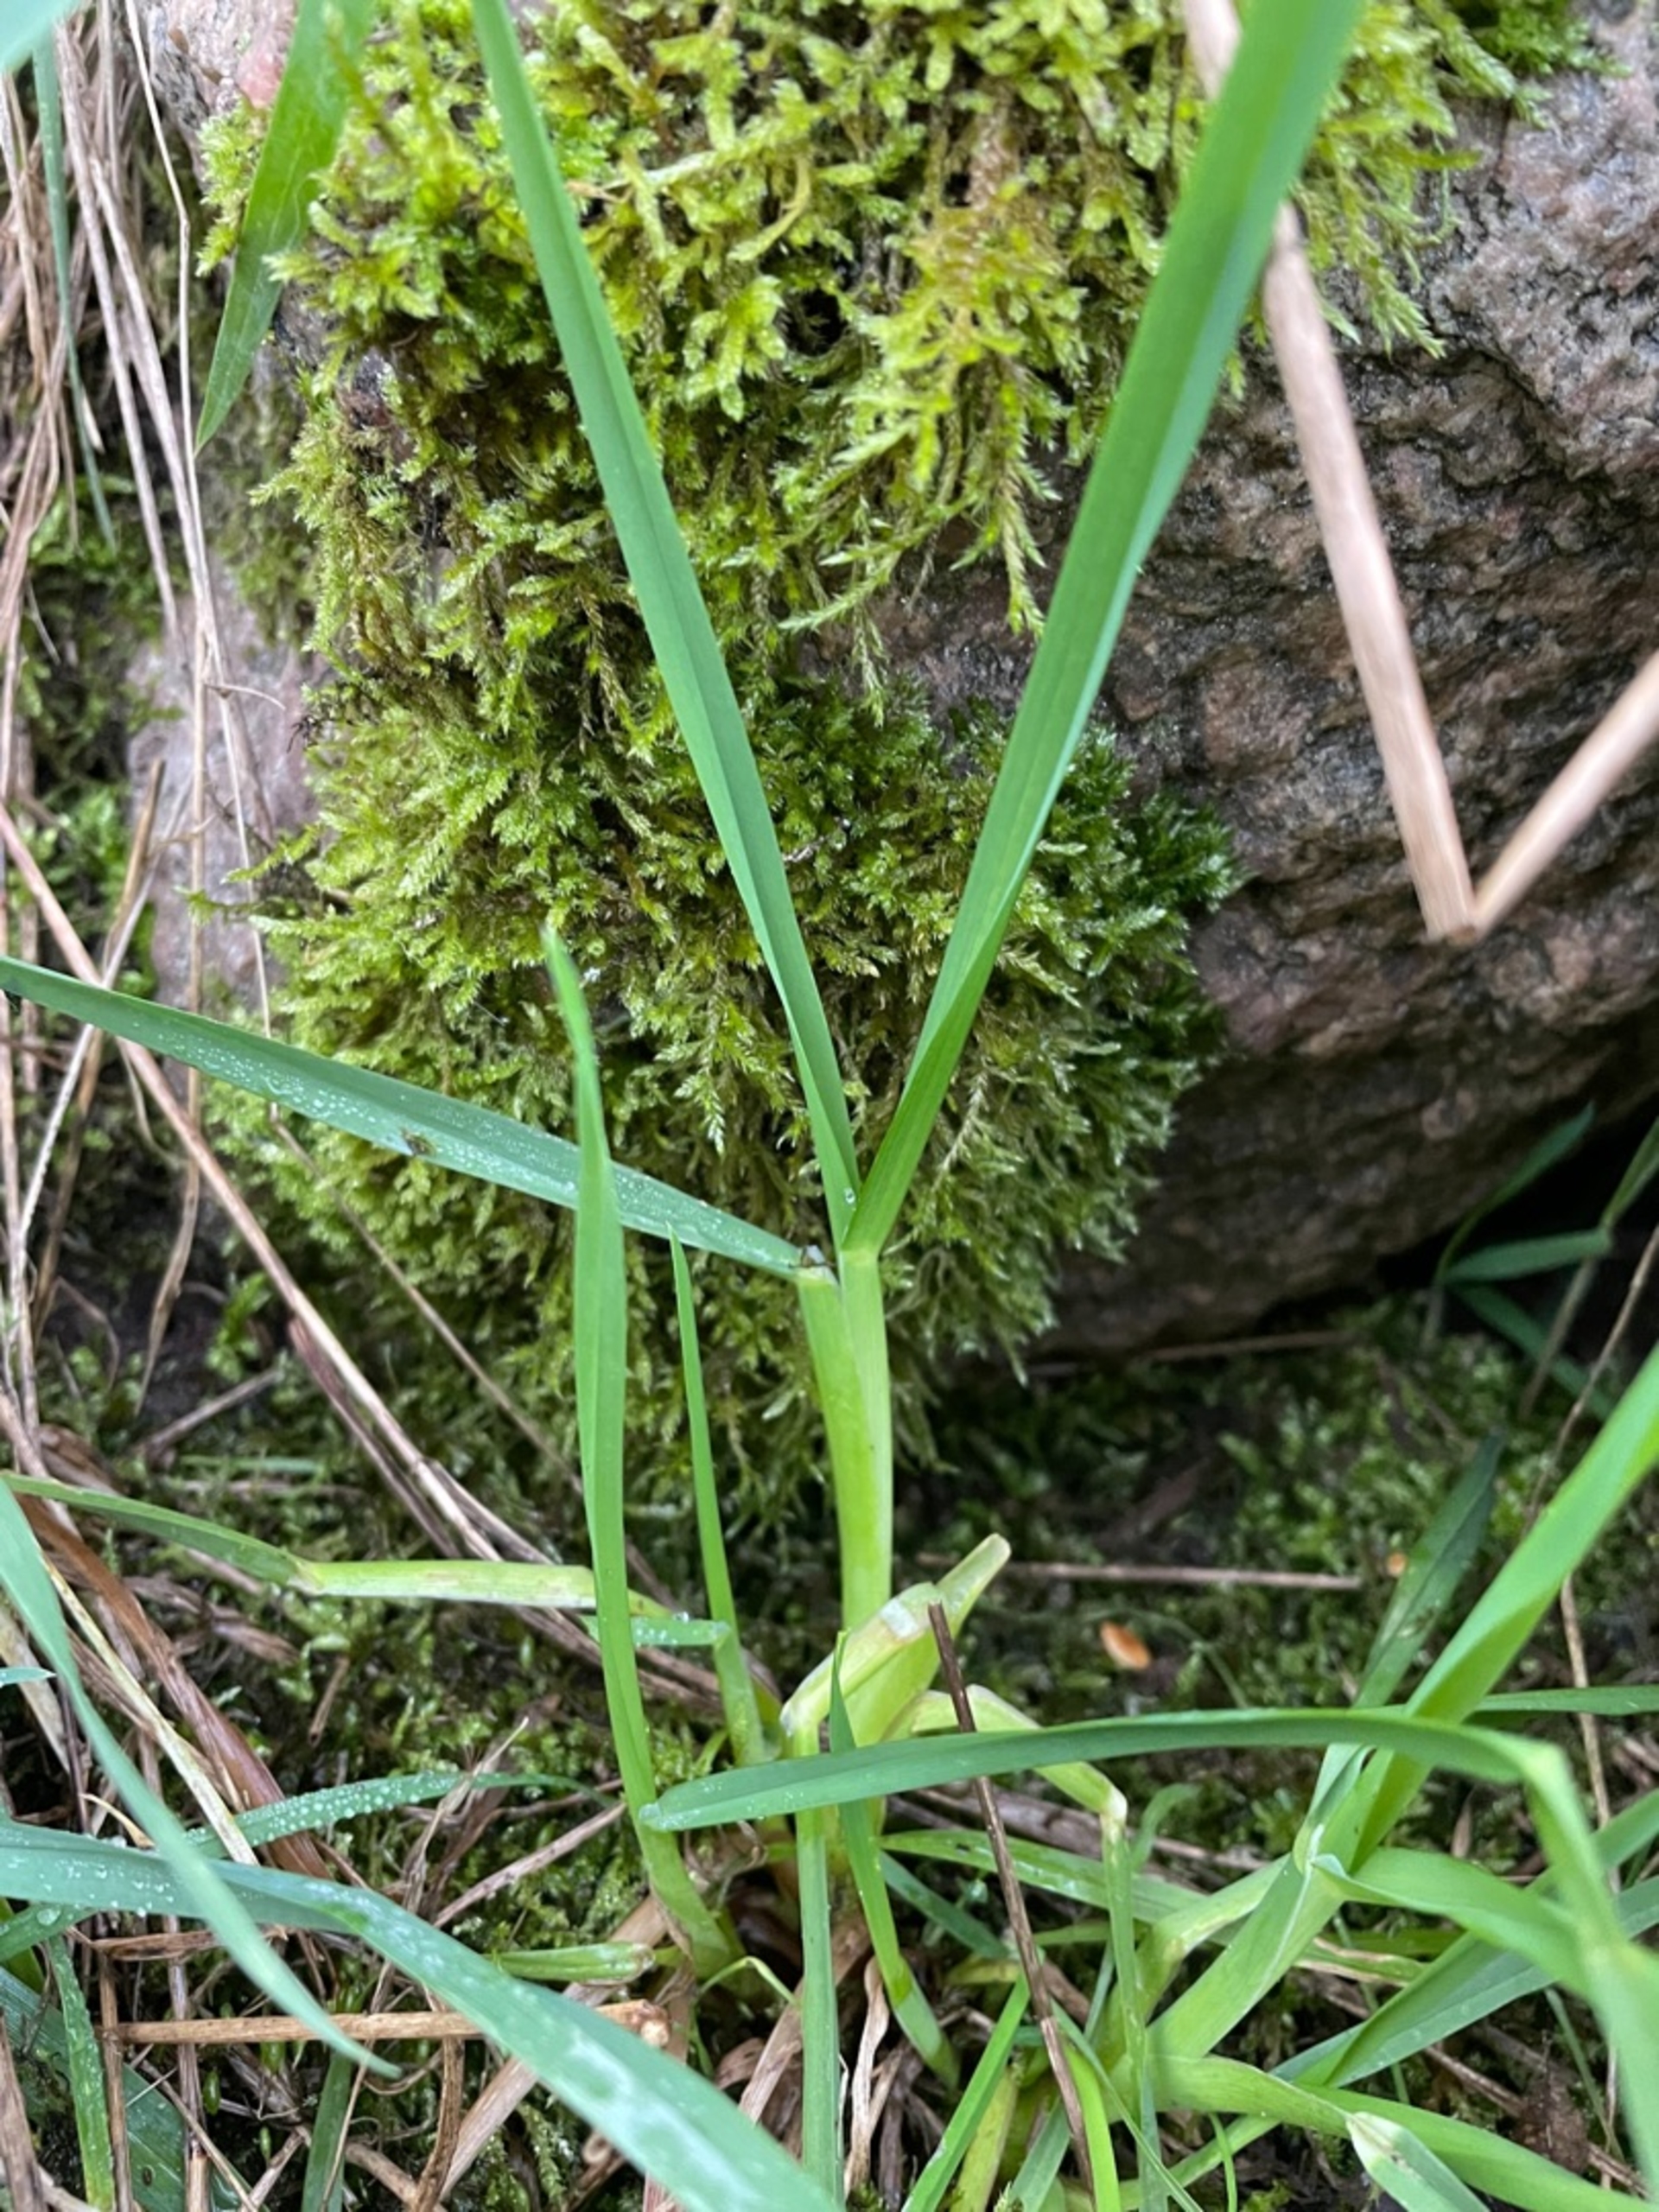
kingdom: Plantae
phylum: Tracheophyta
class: Liliopsida
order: Poales
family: Poaceae
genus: Dactylis
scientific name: Dactylis glomerata
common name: Almindelig hundegræs
